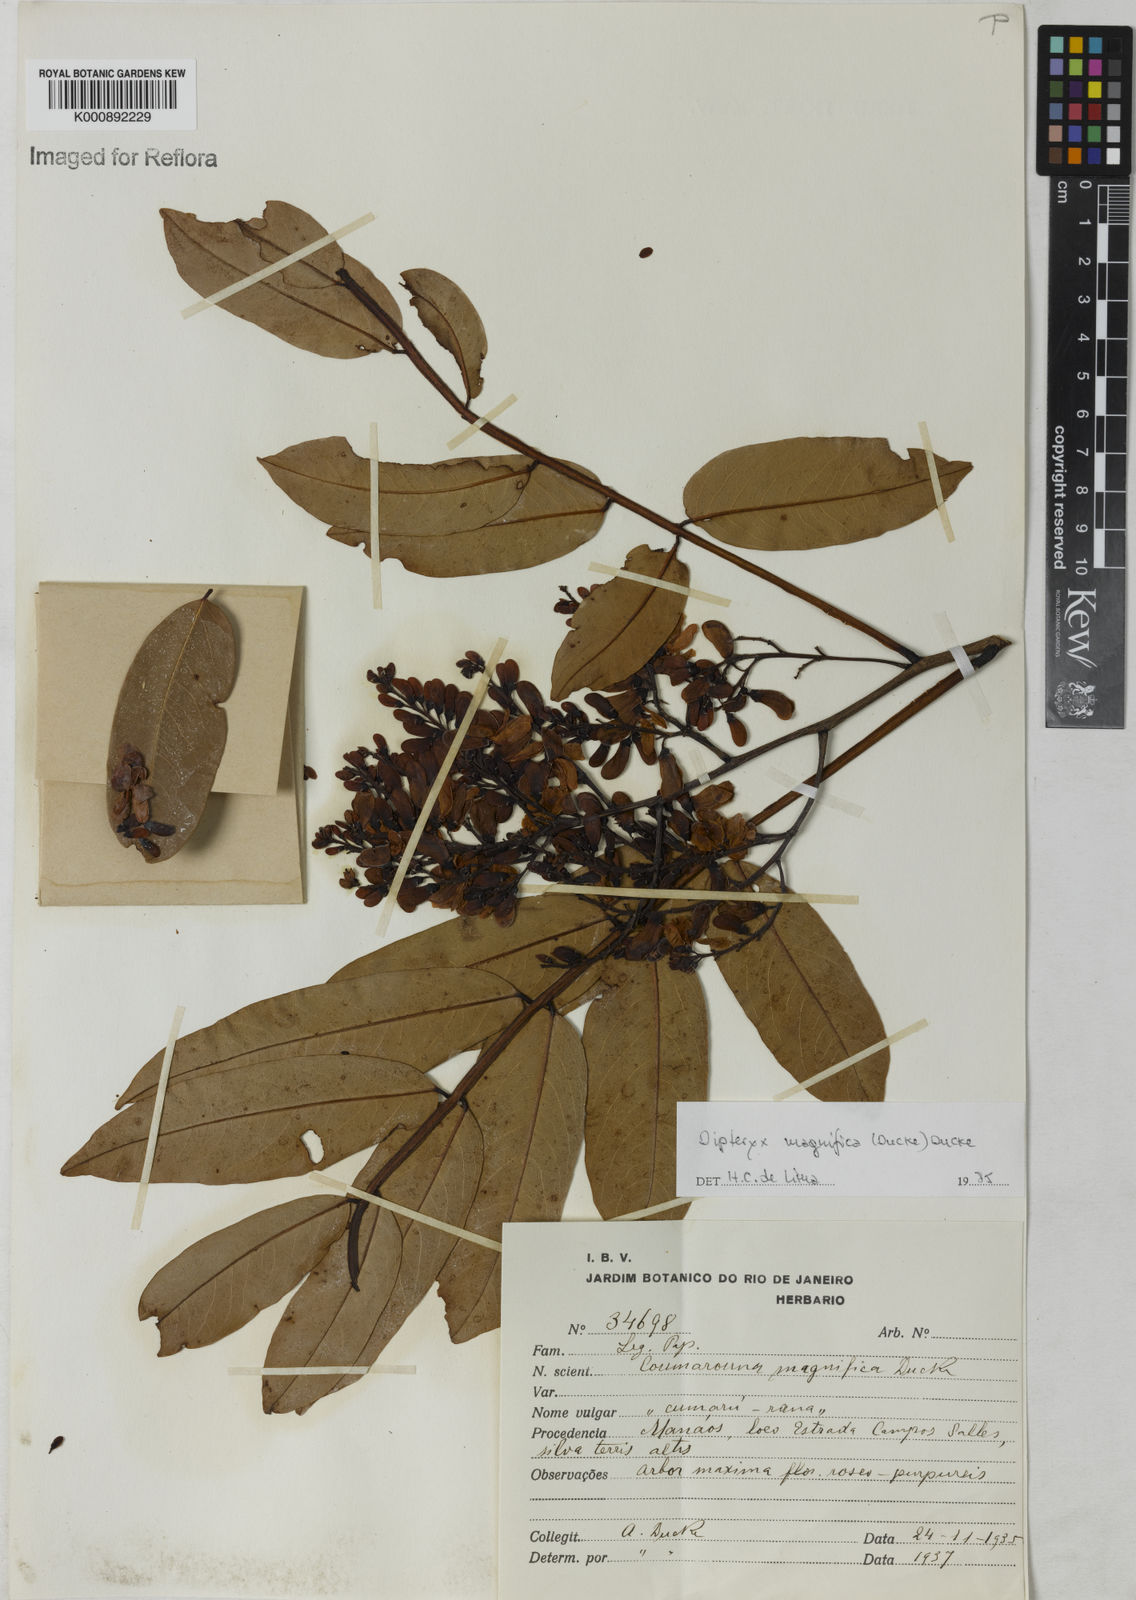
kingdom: Plantae
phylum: Tracheophyta
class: Magnoliopsida
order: Fabales
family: Fabaceae
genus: Dipteryx
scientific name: Dipteryx magnifica
